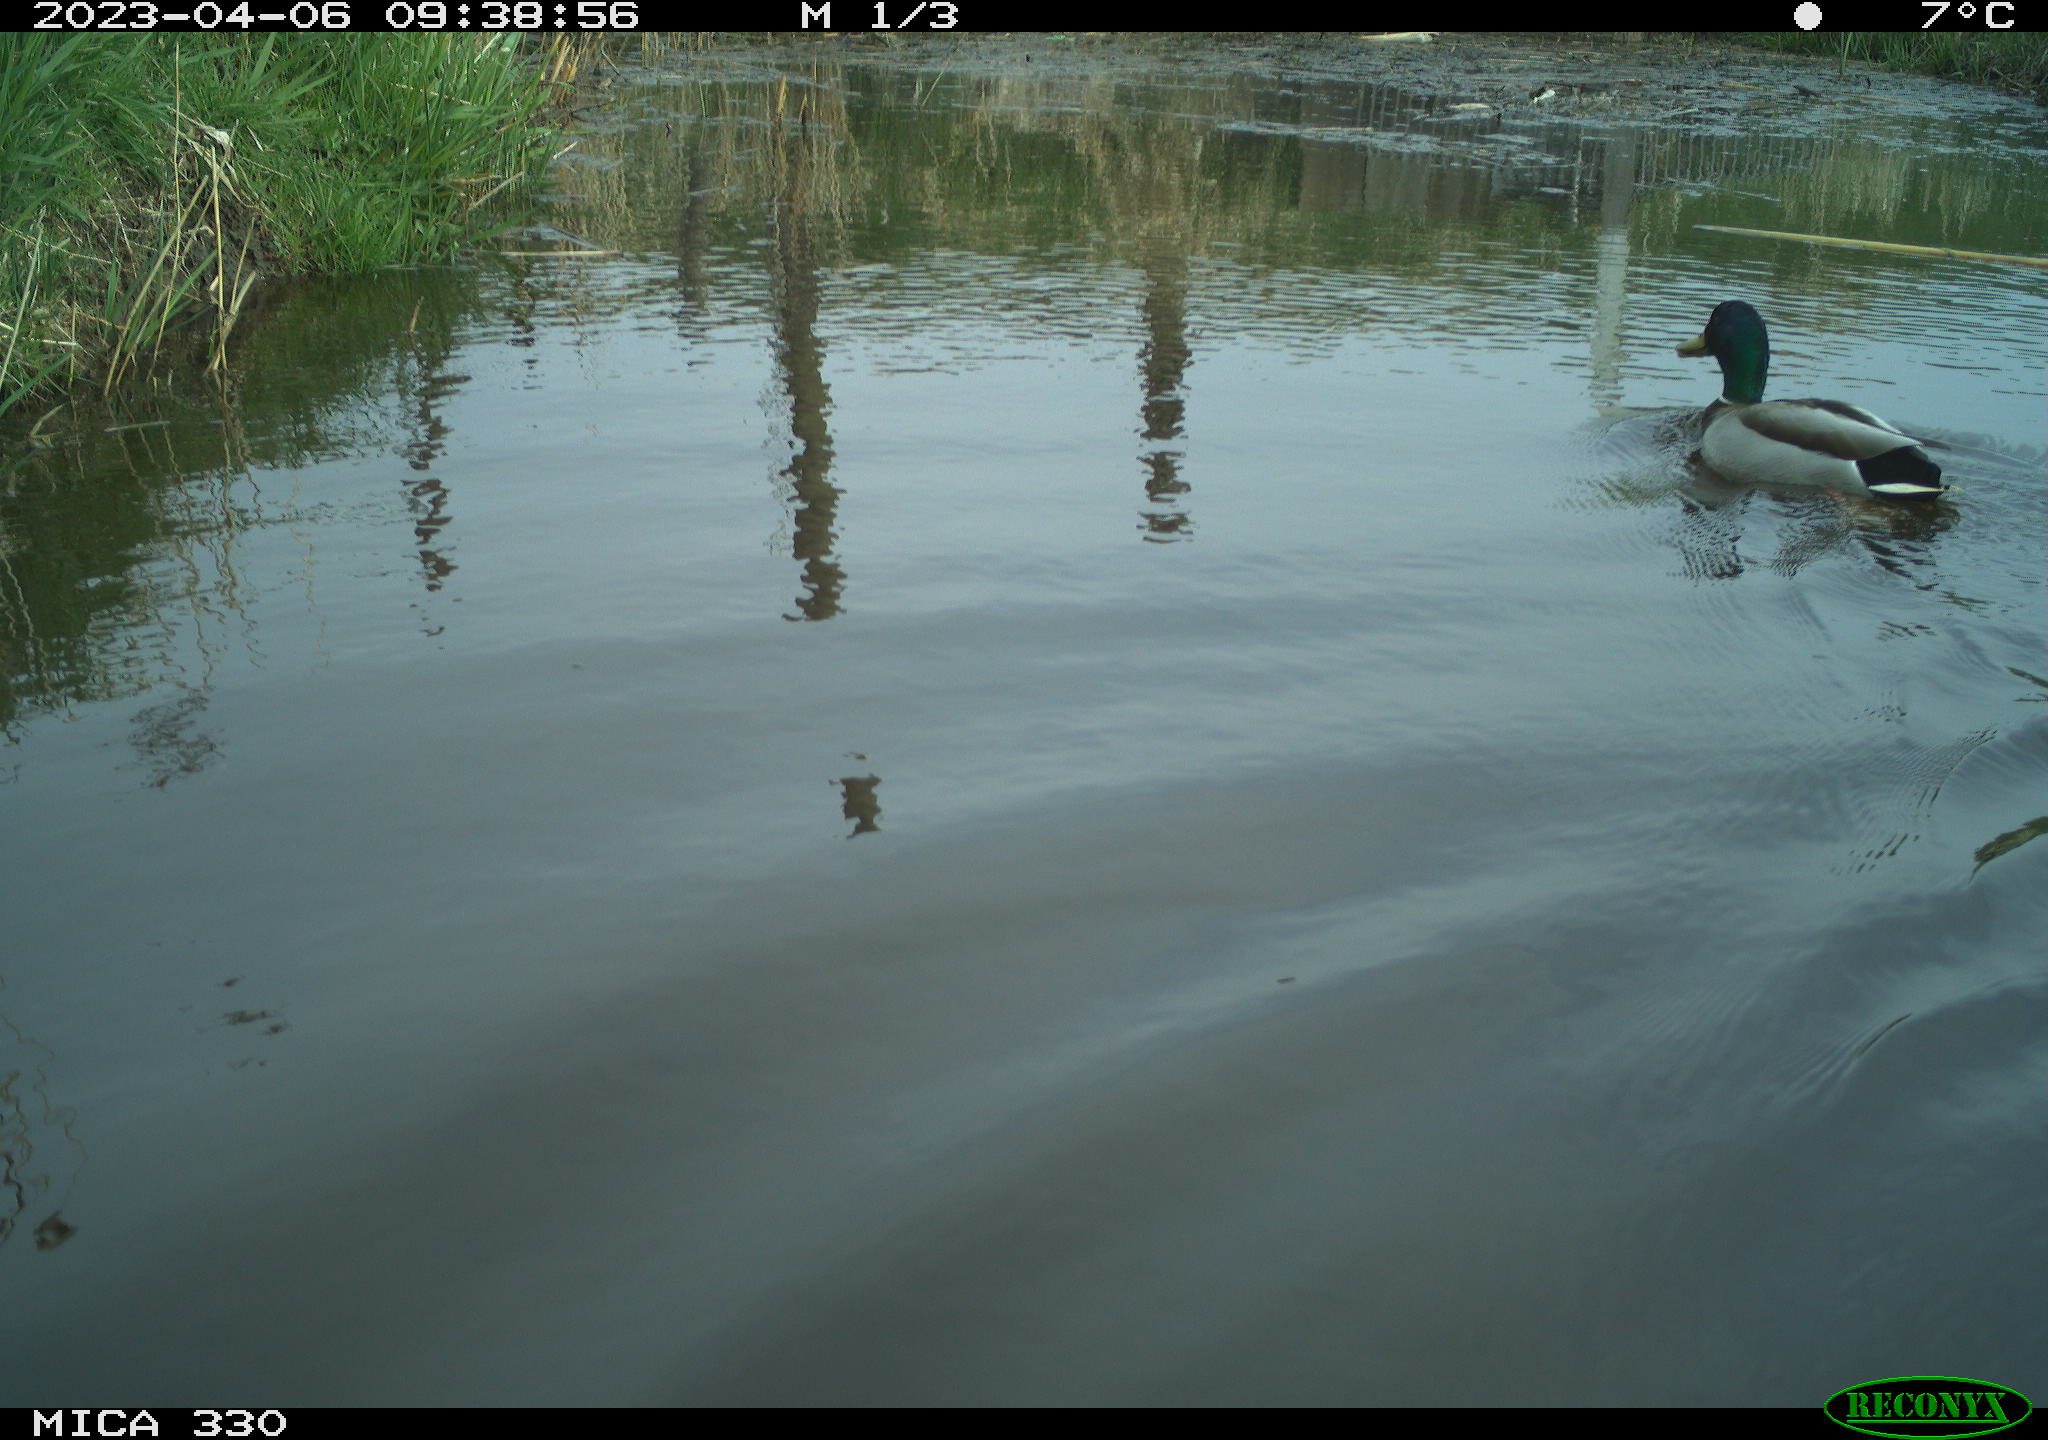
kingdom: Animalia
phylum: Chordata
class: Aves
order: Anseriformes
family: Anatidae
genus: Anas
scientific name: Anas
